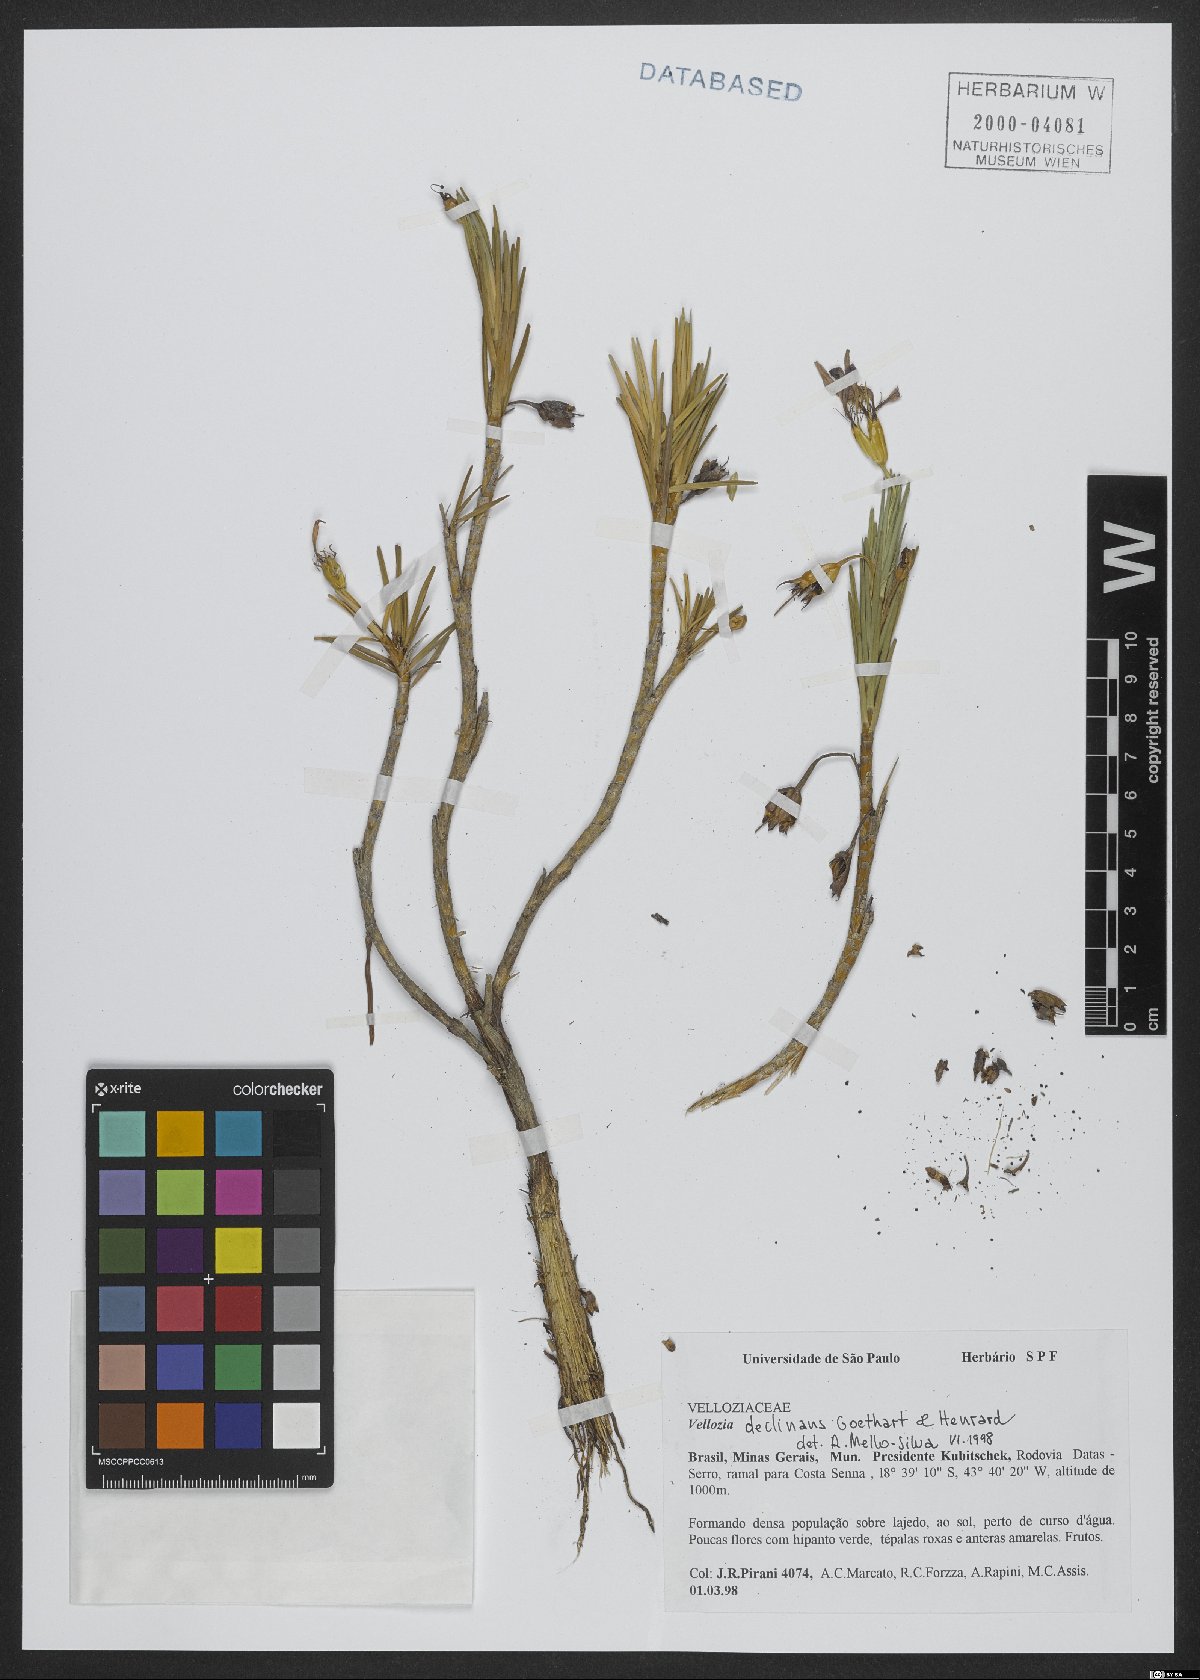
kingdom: Plantae
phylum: Tracheophyta
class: Liliopsida
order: Pandanales
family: Velloziaceae
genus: Vellozia
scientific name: Vellozia declinans
